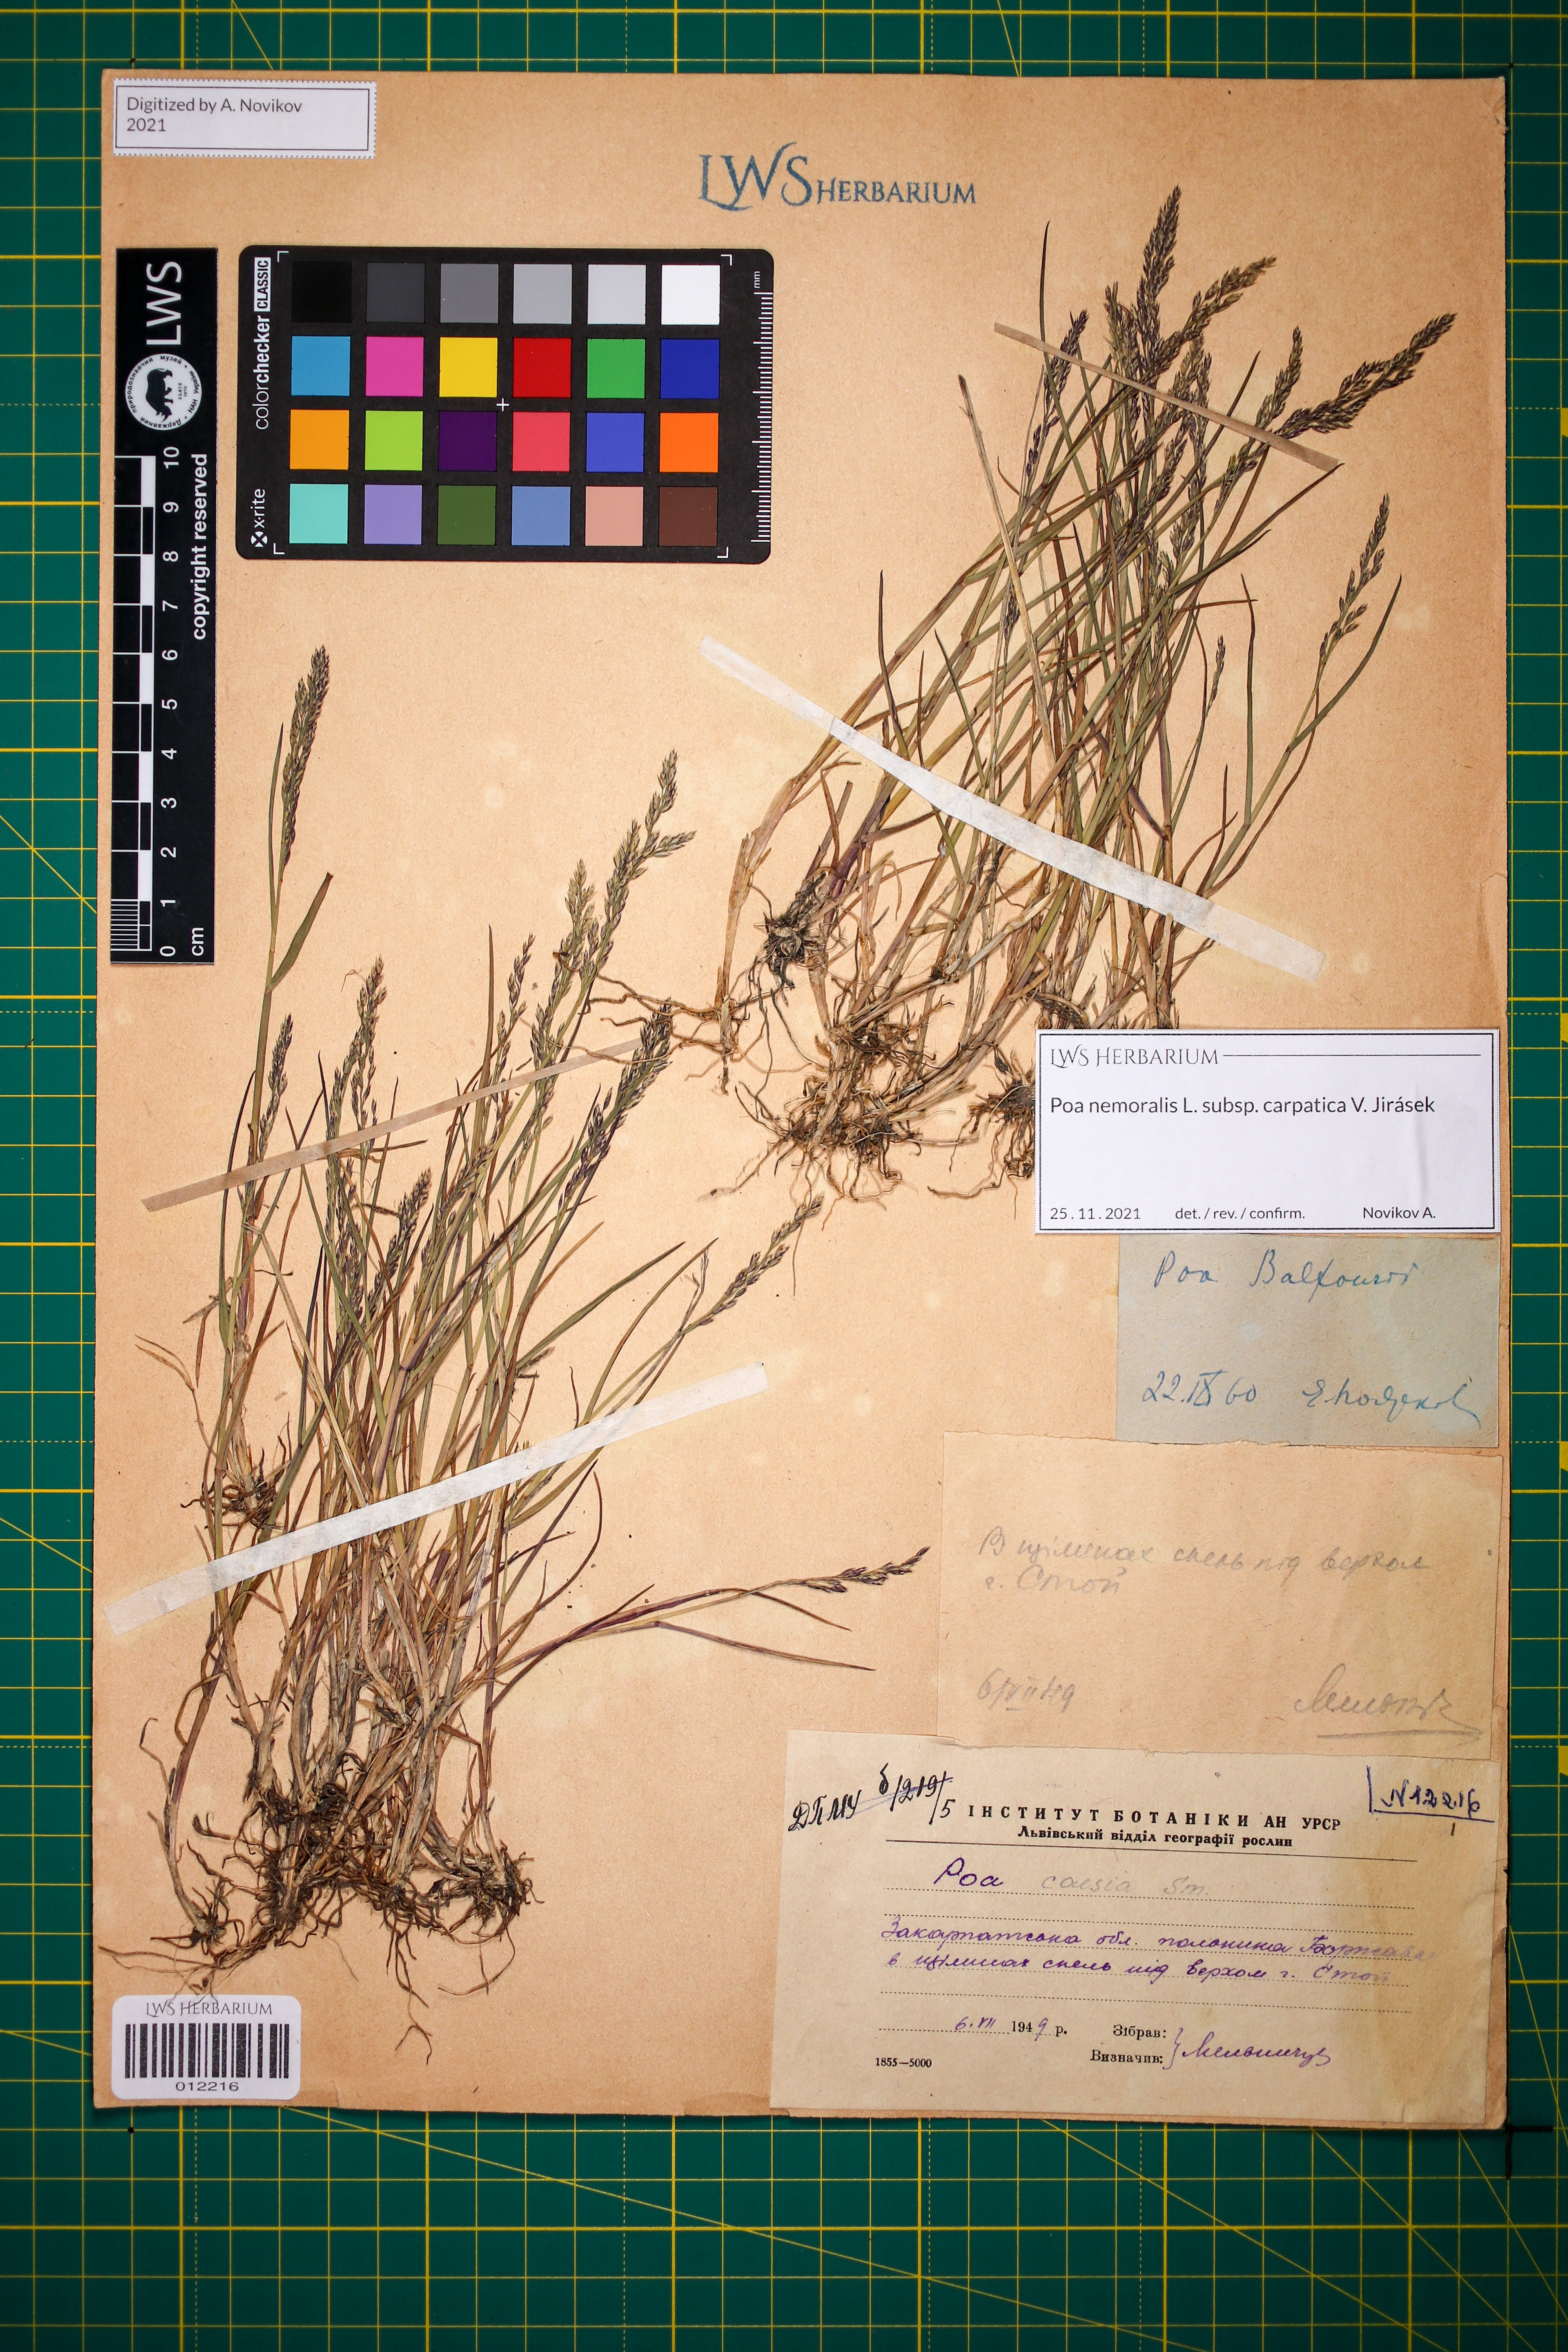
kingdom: Plantae
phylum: Tracheophyta
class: Liliopsida
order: Poales
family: Poaceae
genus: Poa
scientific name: Poa carpatica
